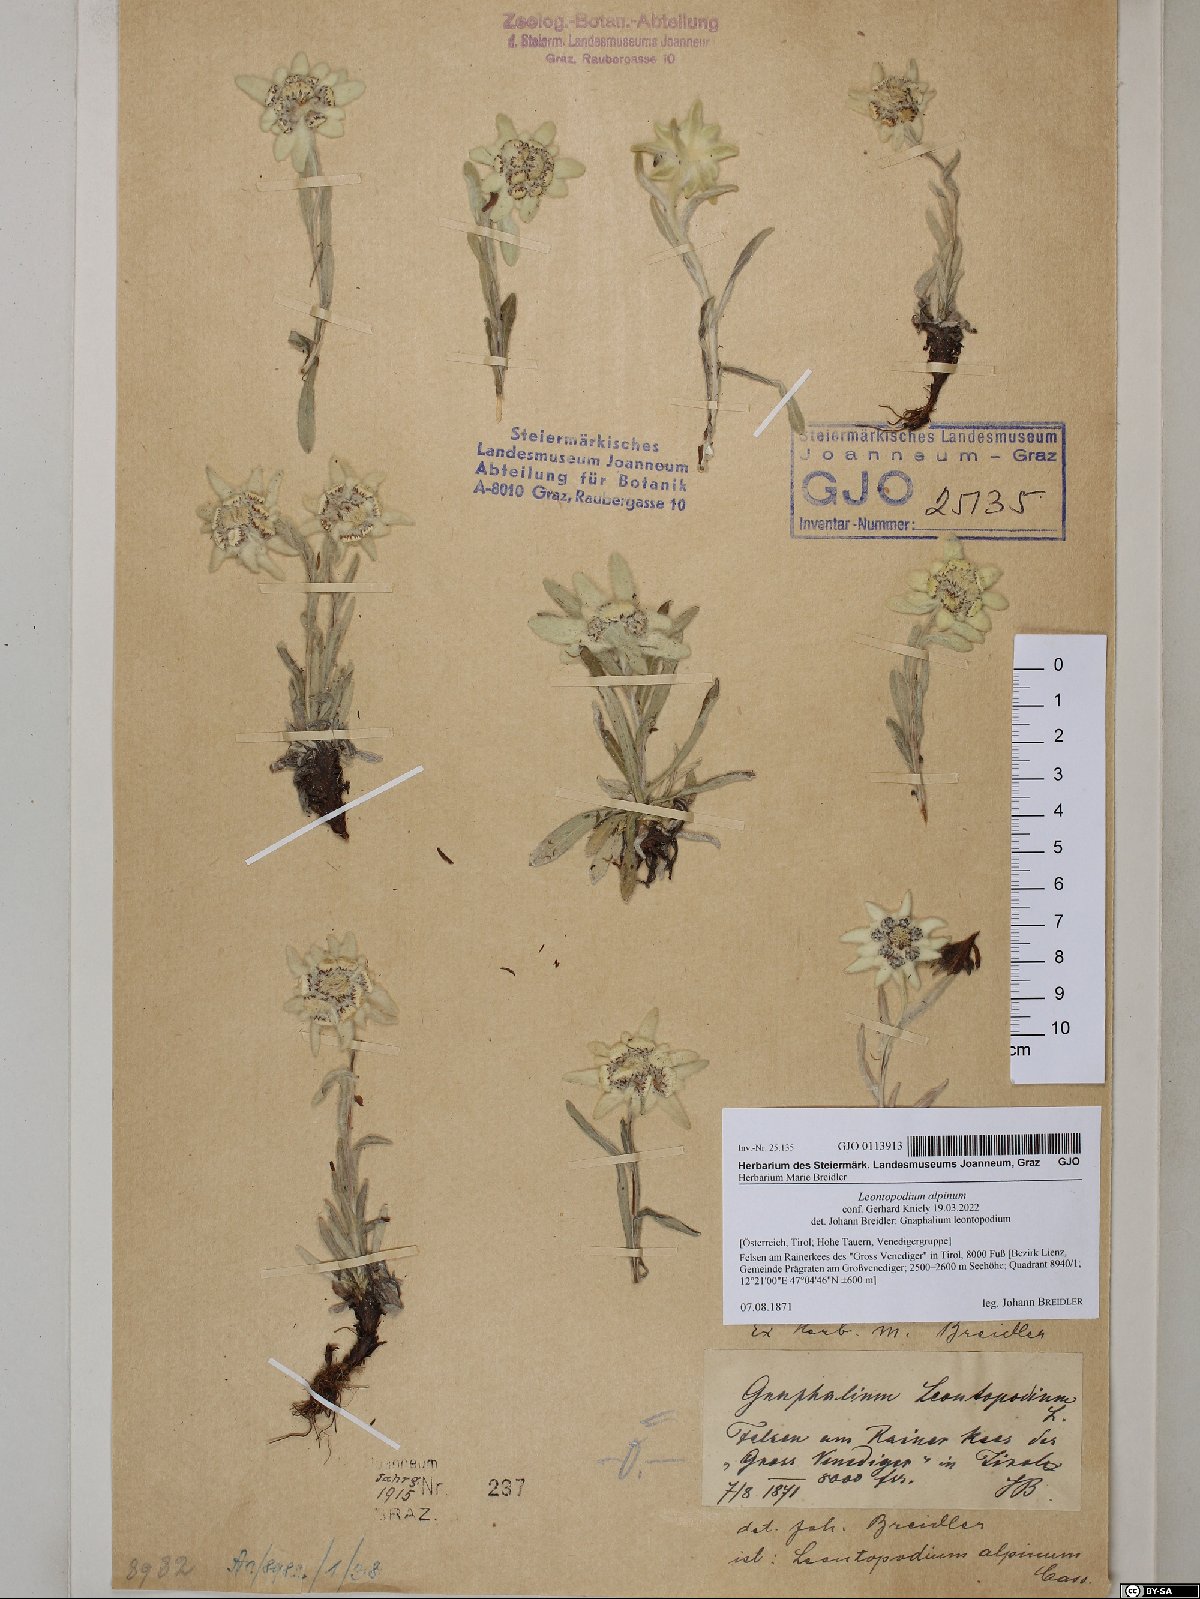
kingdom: Plantae
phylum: Tracheophyta
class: Magnoliopsida
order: Asterales
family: Asteraceae
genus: Leontopodium
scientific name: Leontopodium nivale
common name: Edelweiss
